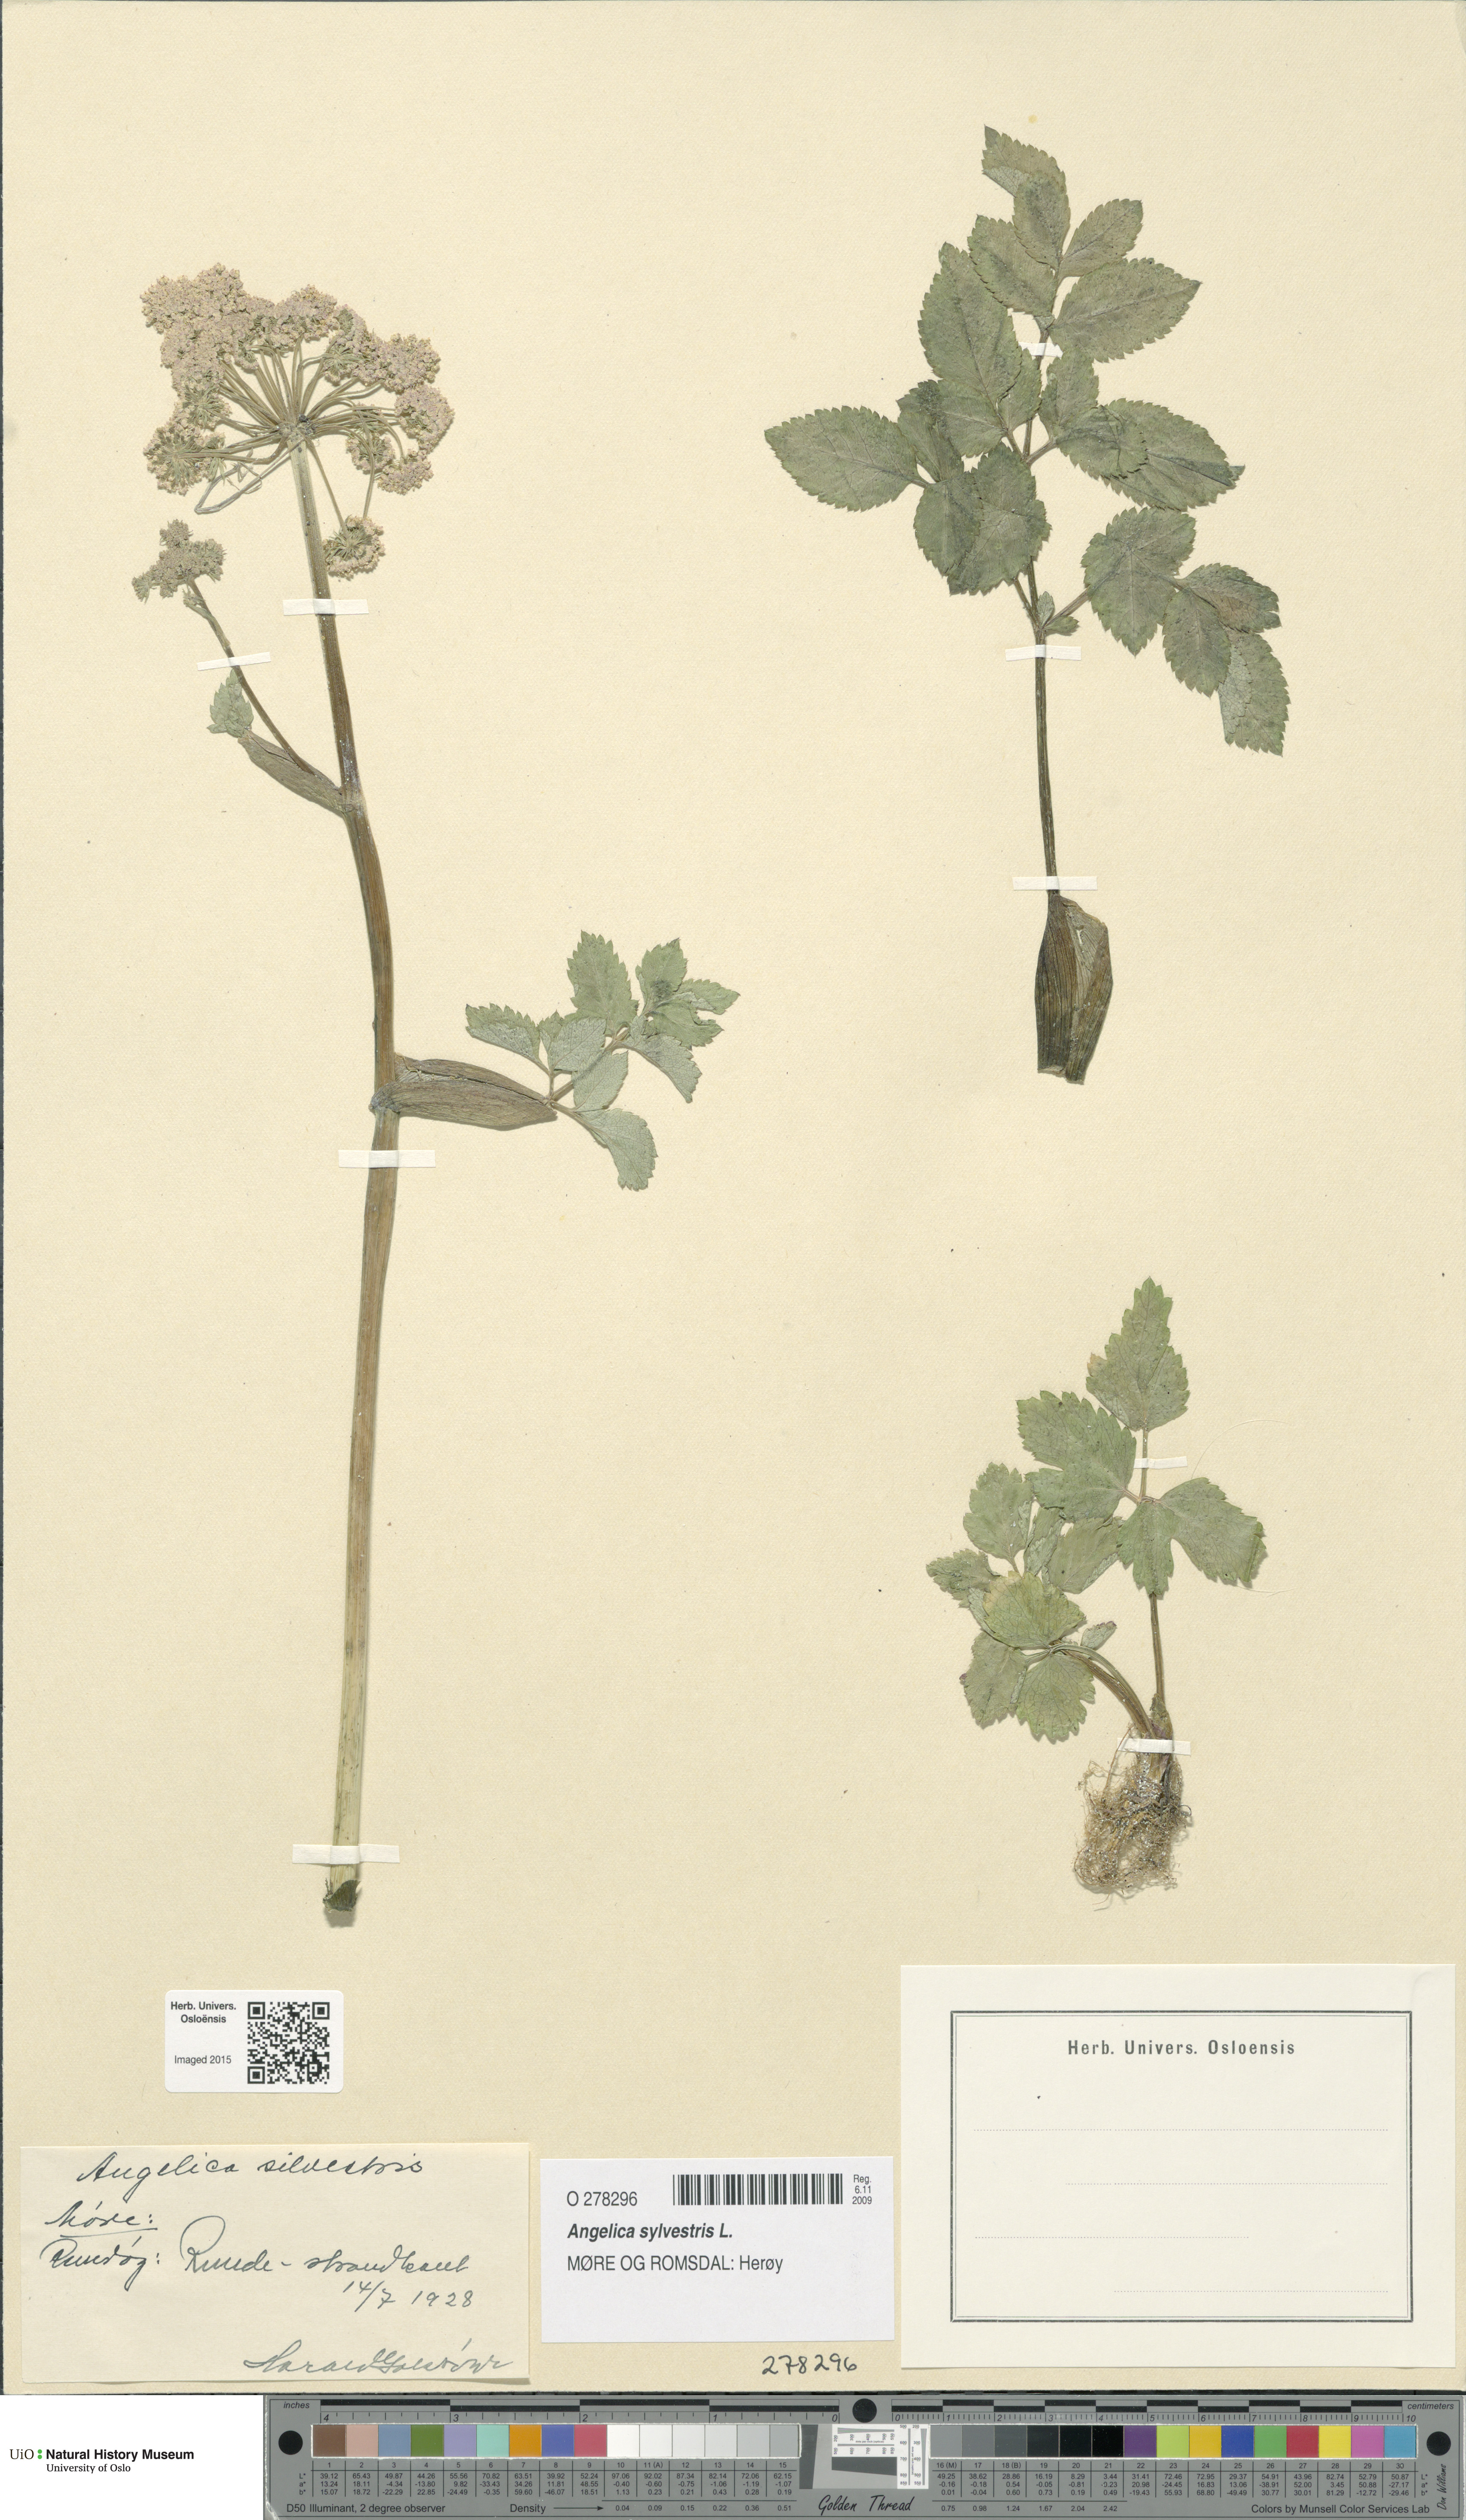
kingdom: Plantae
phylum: Tracheophyta
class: Magnoliopsida
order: Apiales
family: Apiaceae
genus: Angelica
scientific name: Angelica sylvestris
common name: Wild angelica
